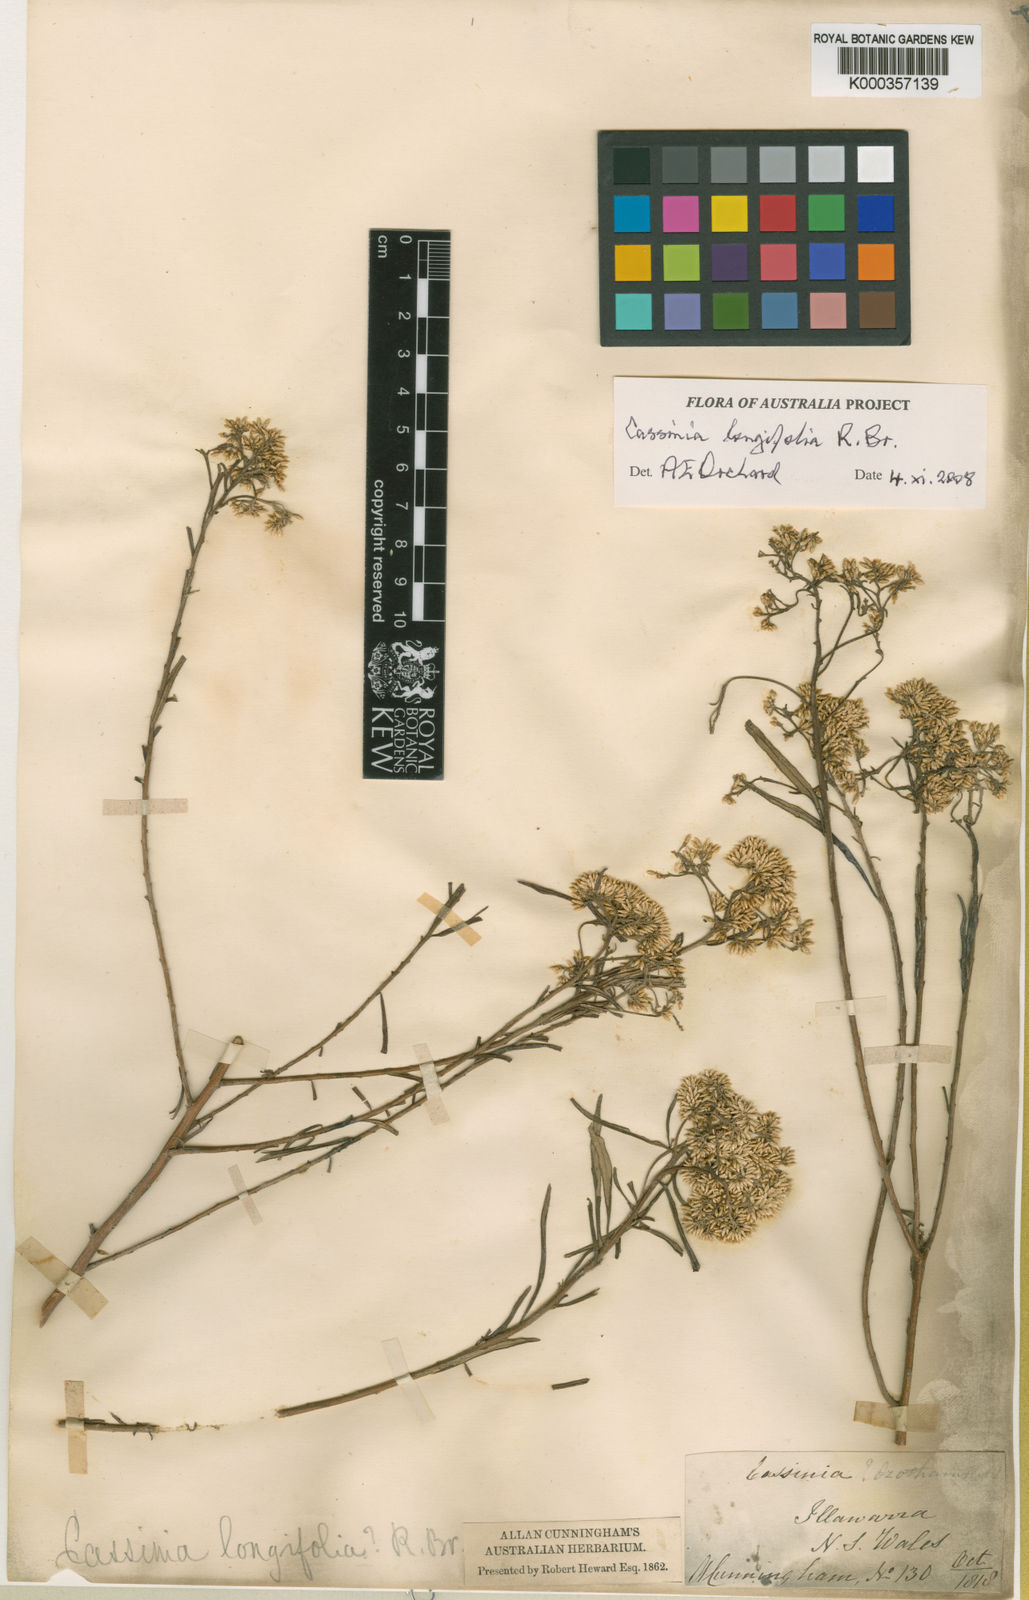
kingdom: Plantae
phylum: Tracheophyta
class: Magnoliopsida
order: Asterales
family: Asteraceae
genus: Cassinia
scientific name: Cassinia longifolia
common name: Longleaf-dogwood
